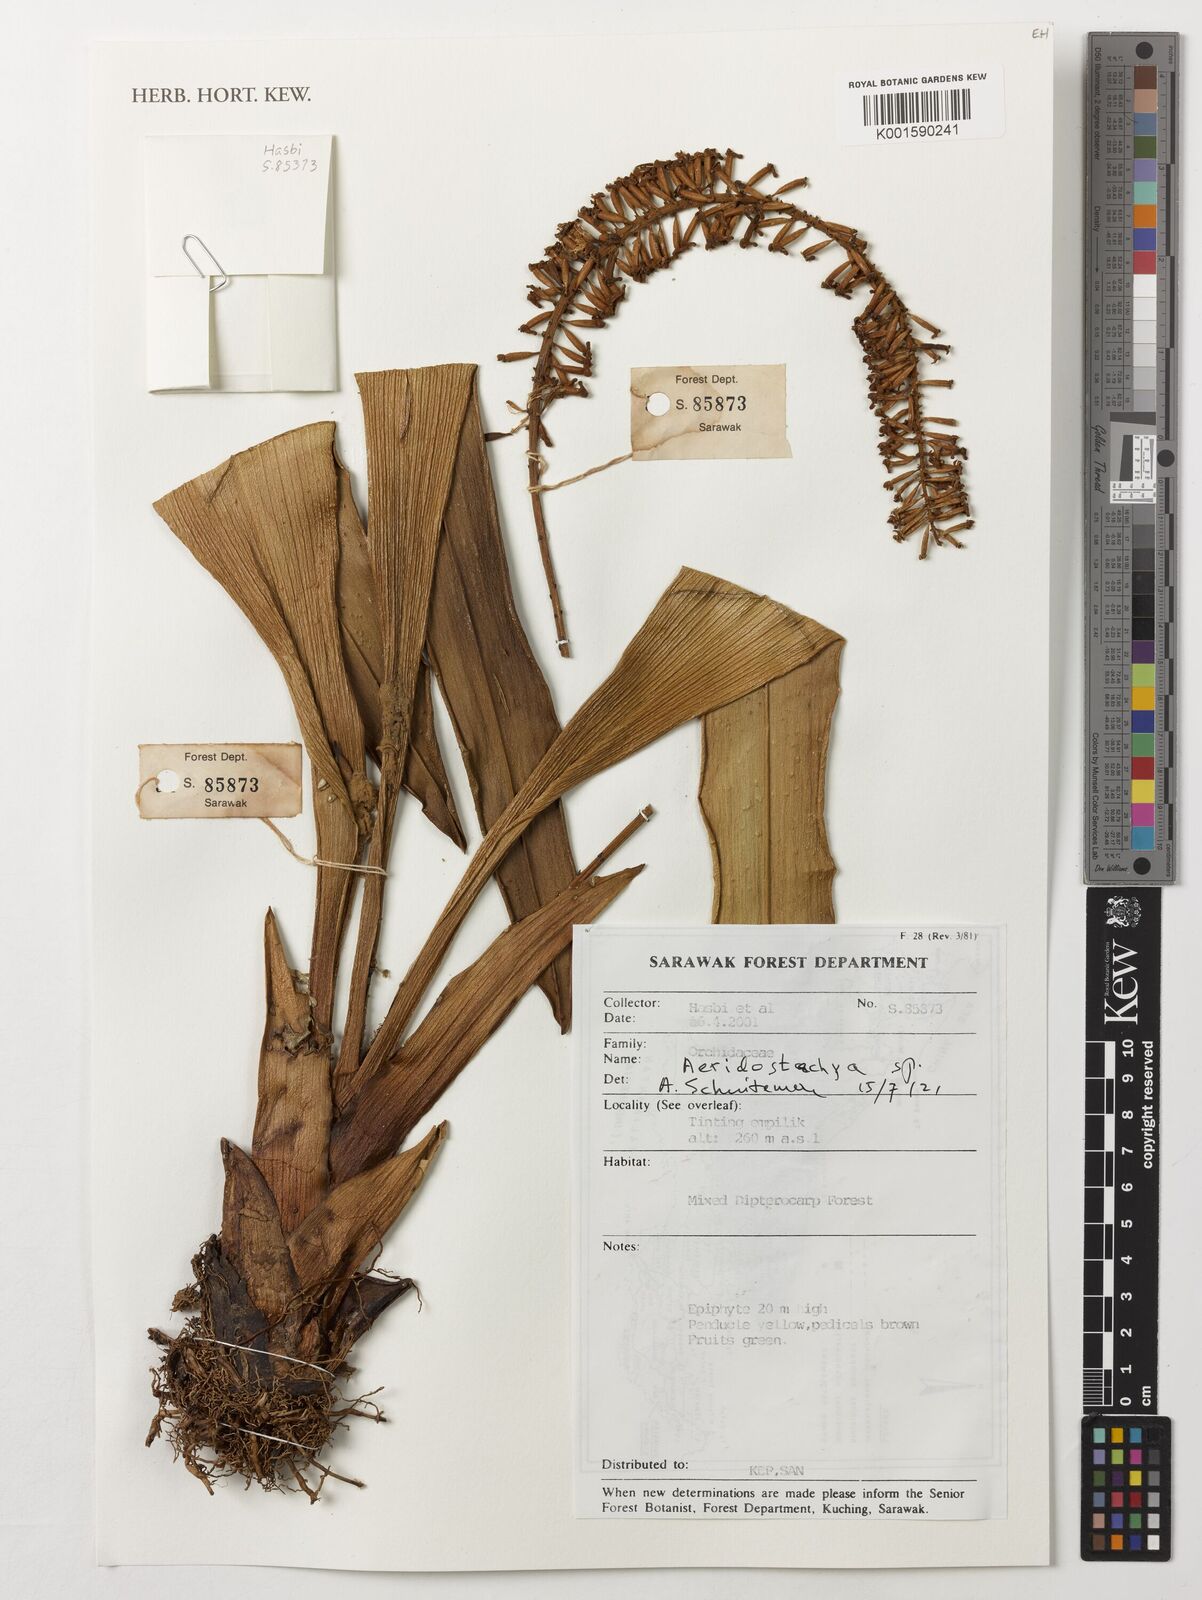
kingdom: Plantae
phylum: Tracheophyta
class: Liliopsida
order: Asparagales
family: Orchidaceae
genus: Aeridostachya
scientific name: Aeridostachya
